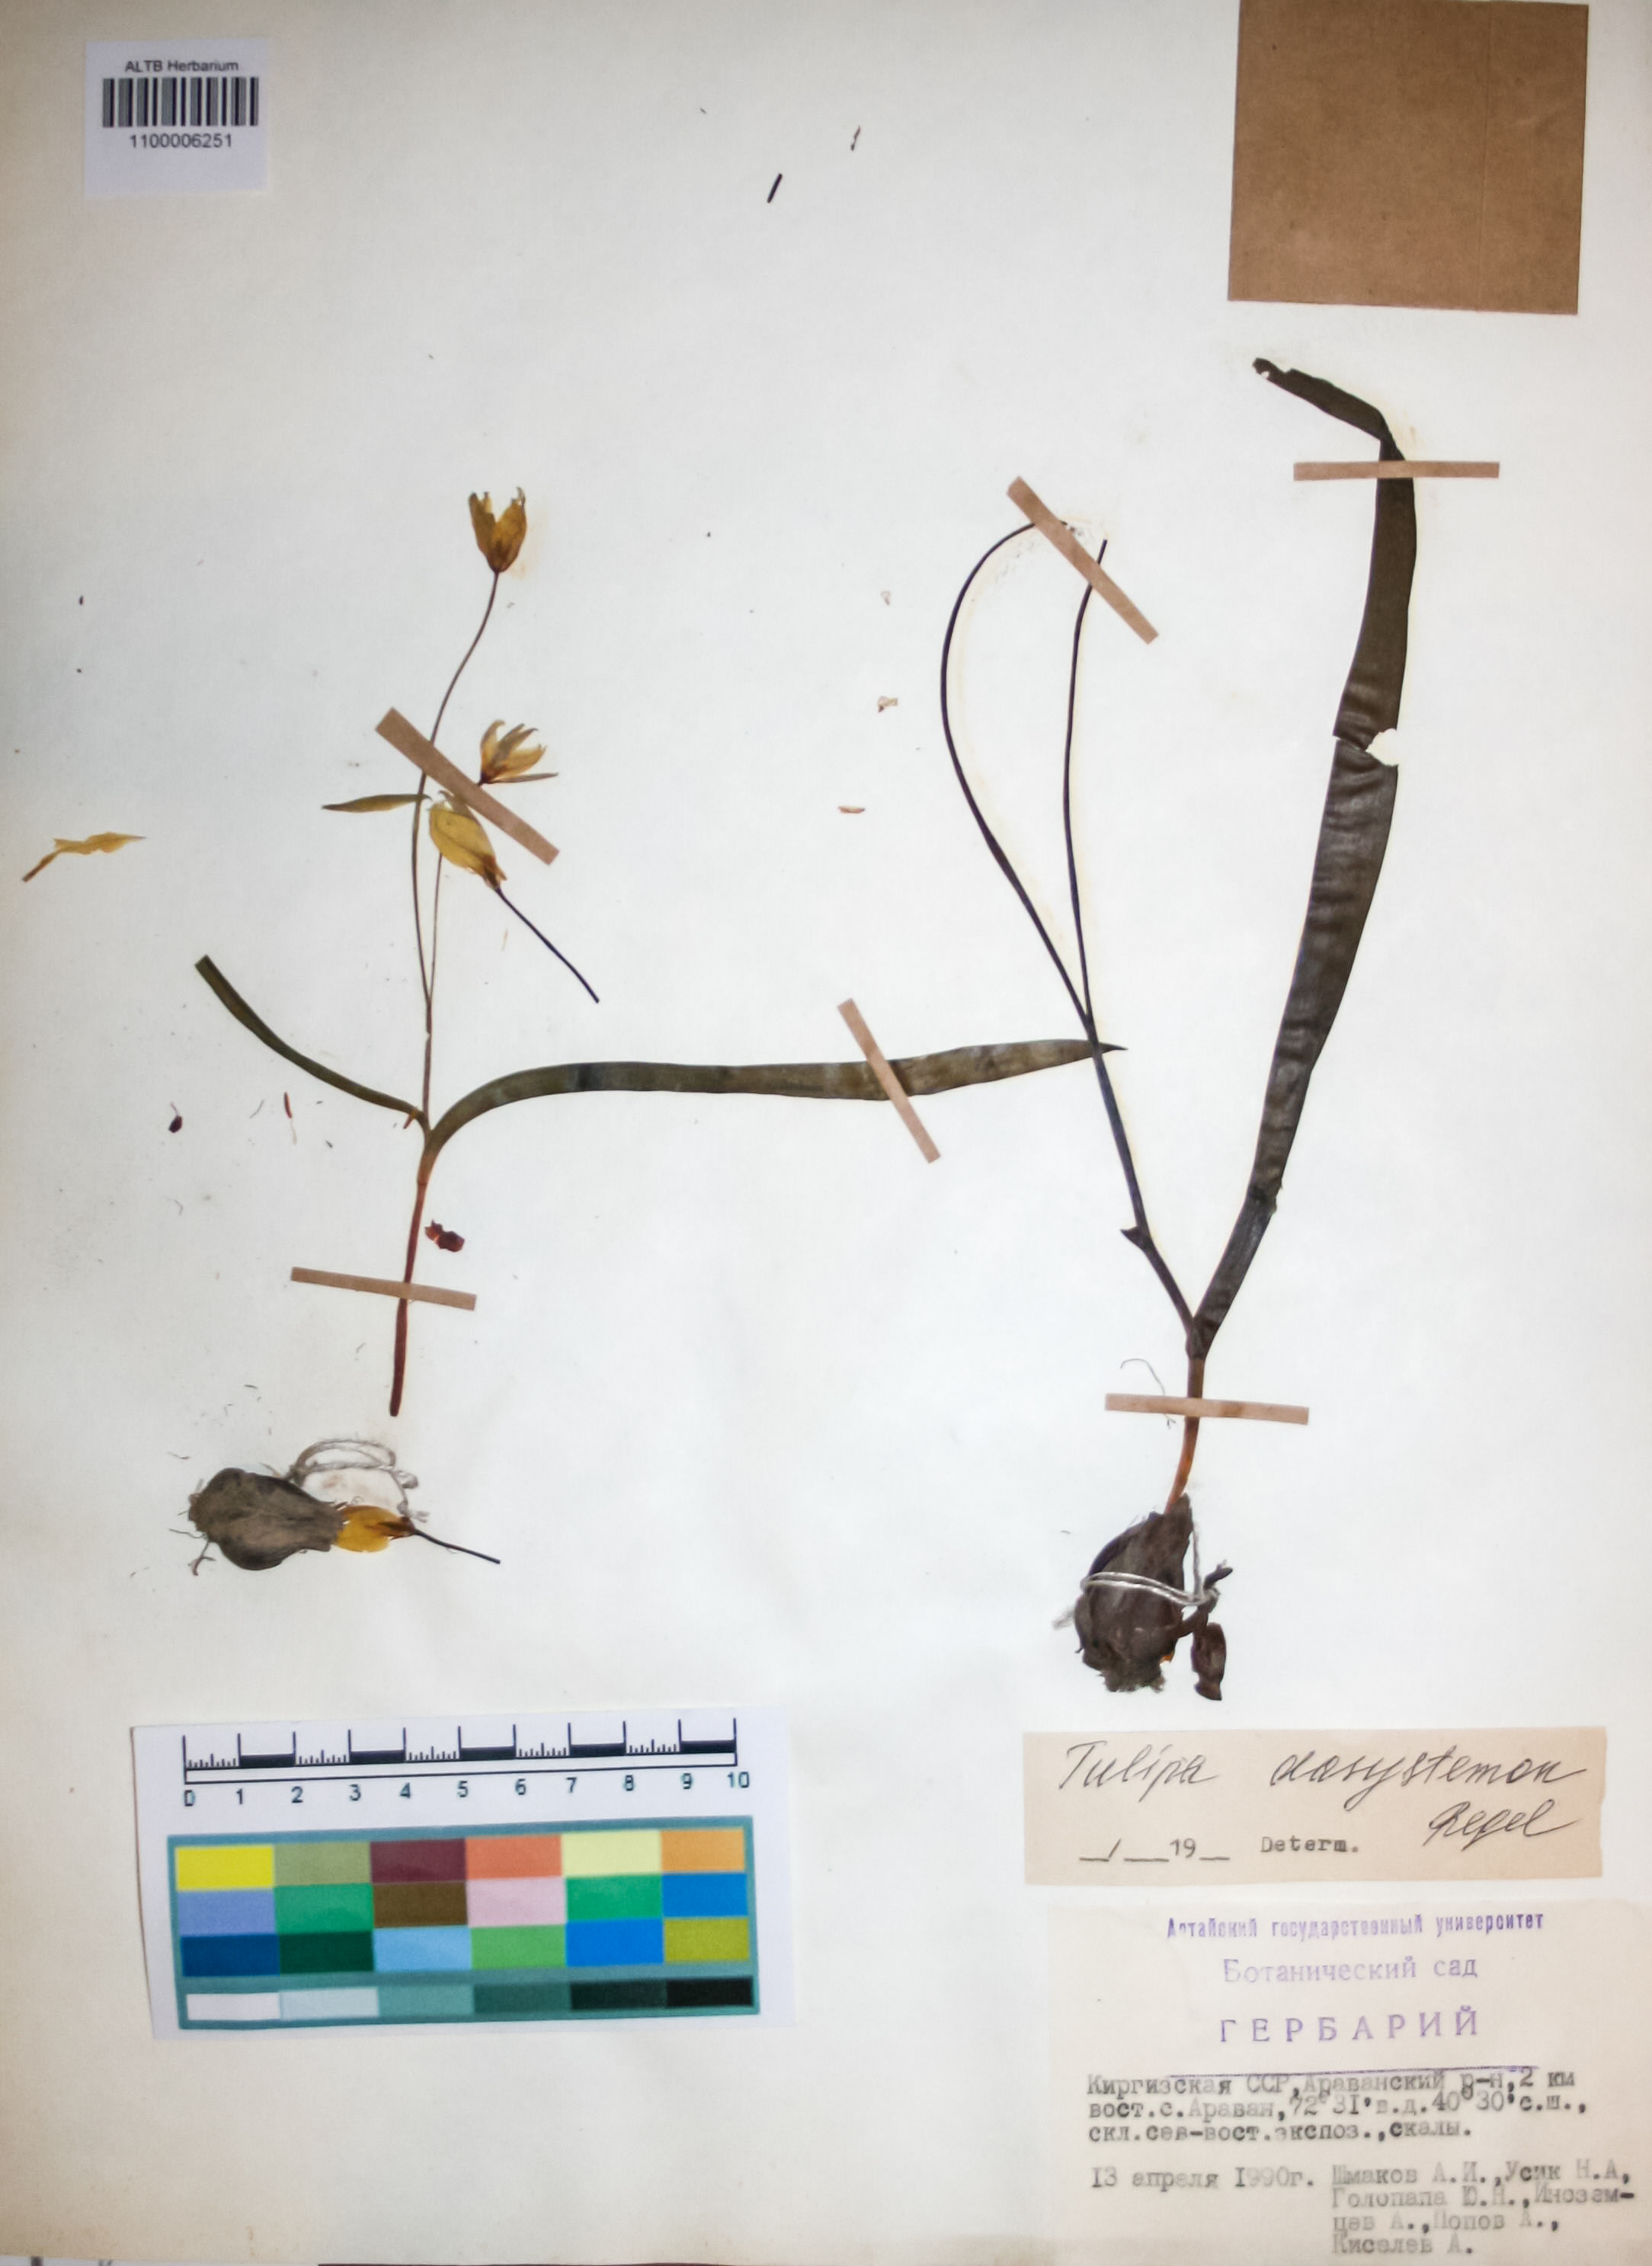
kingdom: Plantae
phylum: Tracheophyta
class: Liliopsida
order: Liliales
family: Liliaceae
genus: Tulipa
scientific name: Tulipa dasystemon
